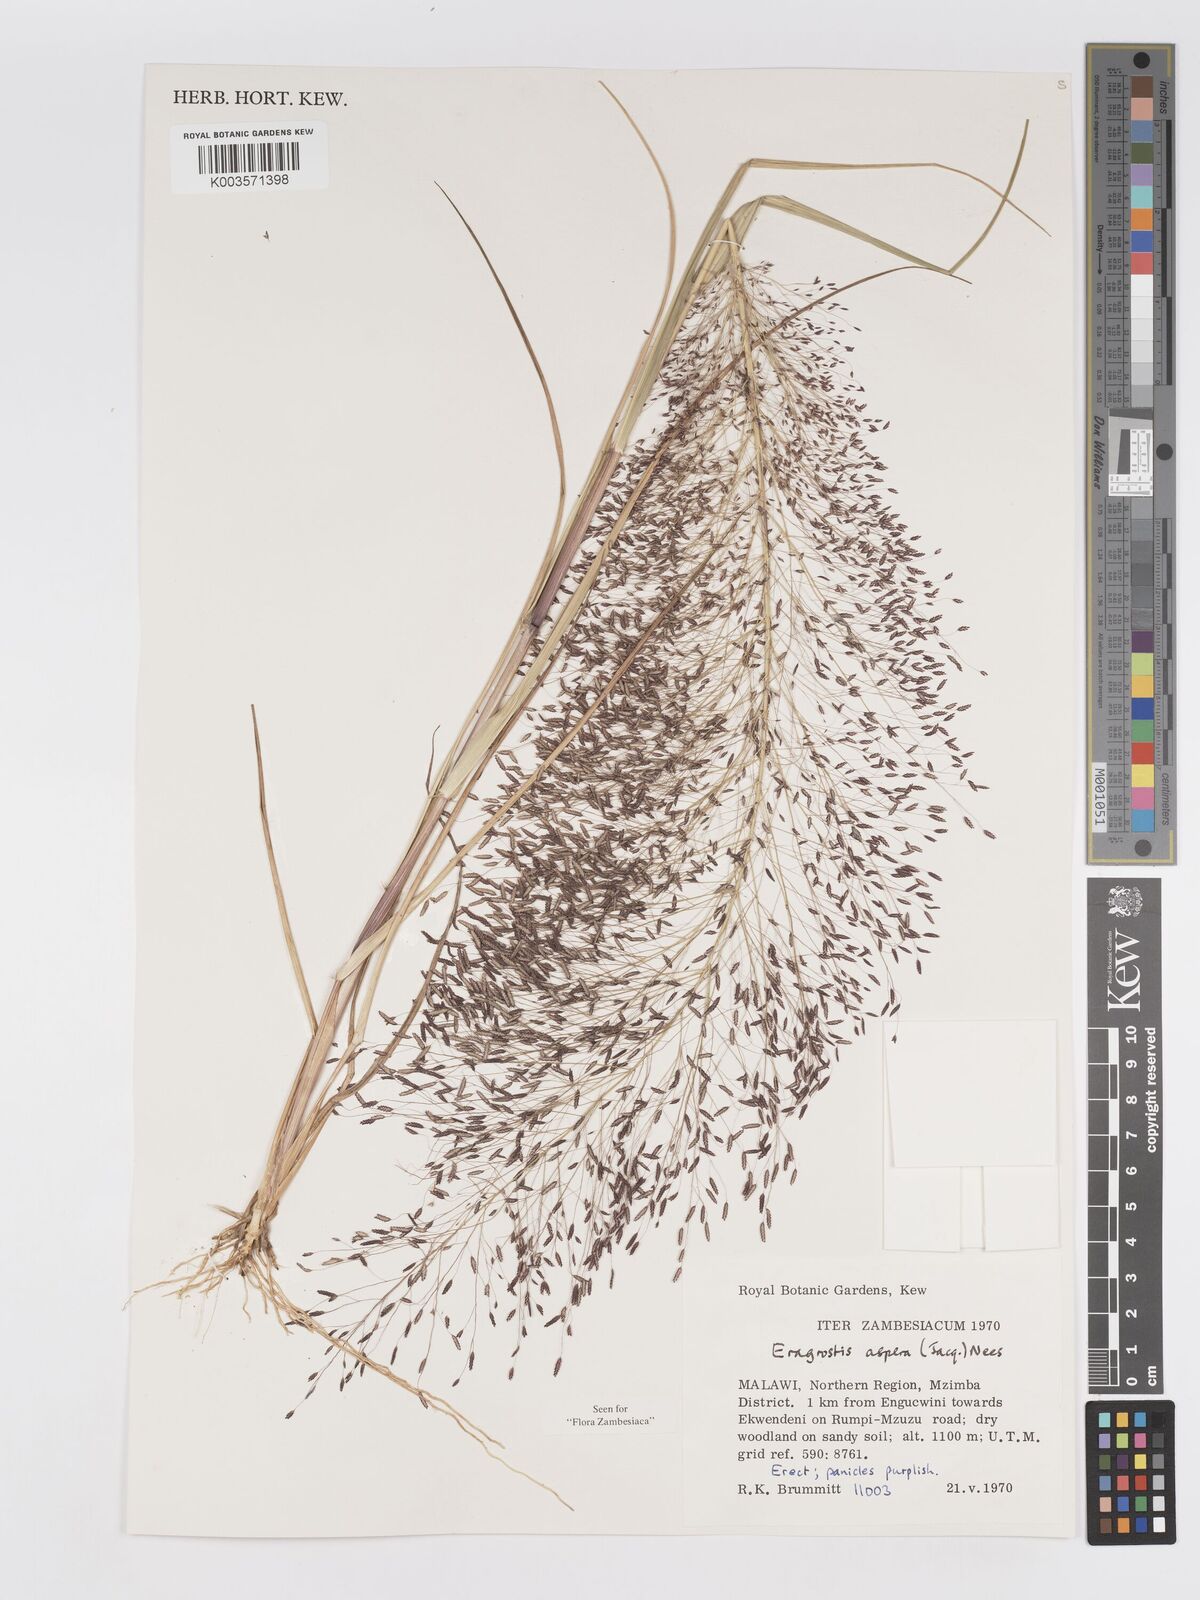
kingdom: Plantae
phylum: Tracheophyta
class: Liliopsida
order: Poales
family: Poaceae
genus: Eragrostis
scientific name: Eragrostis aspera
